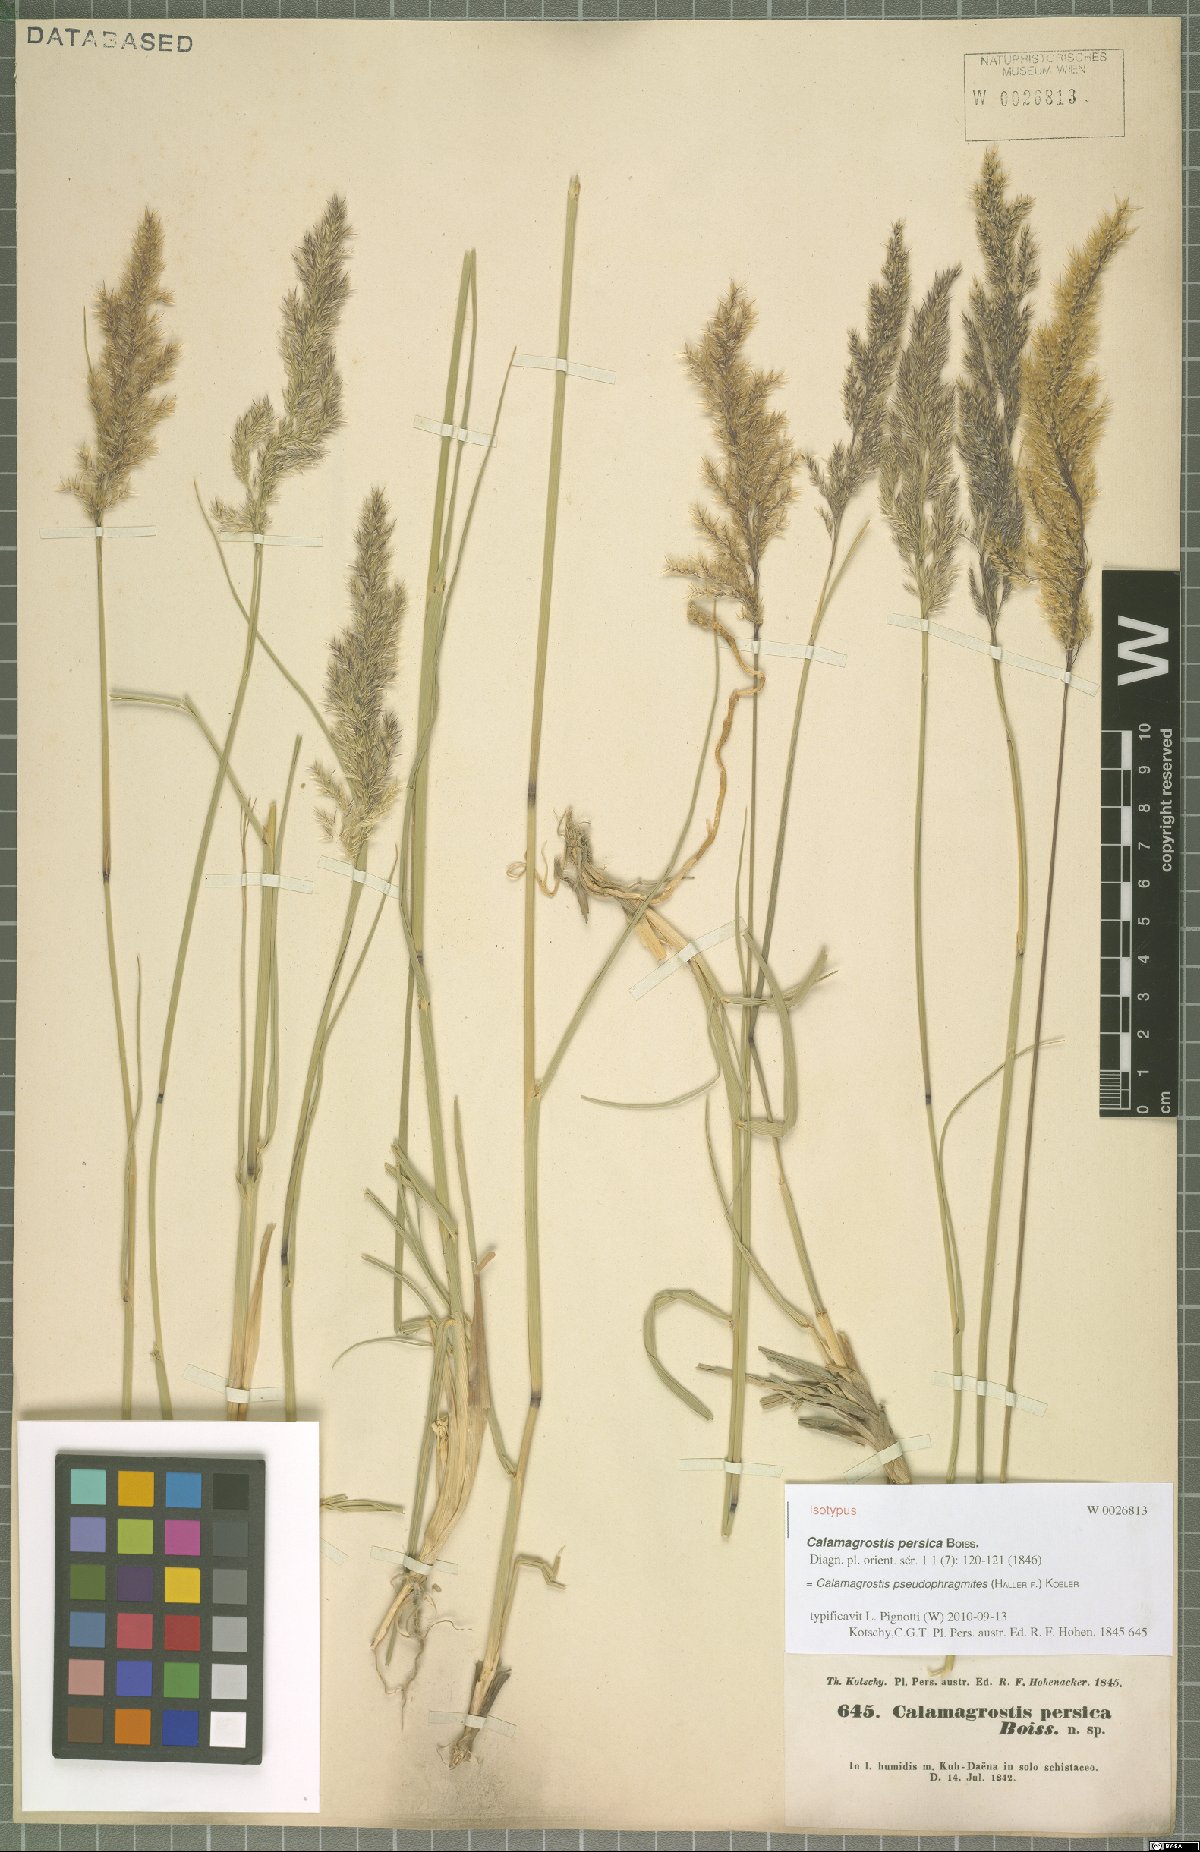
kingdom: Plantae
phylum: Tracheophyta
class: Liliopsida
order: Poales
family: Poaceae
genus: Calamagrostis
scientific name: Calamagrostis pseudophragmites
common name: Coastal small-reed
